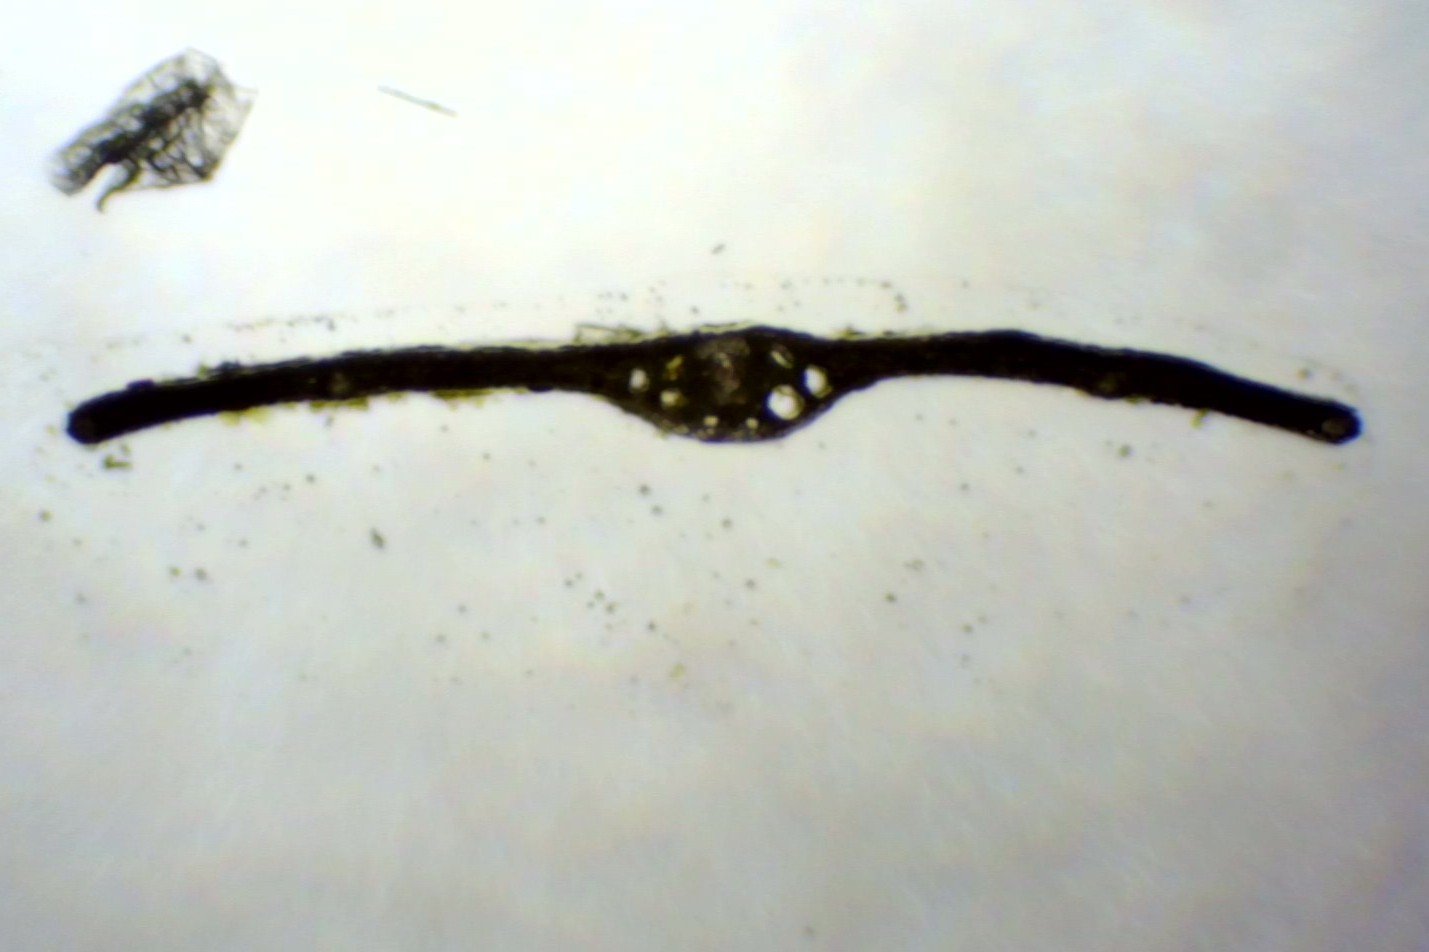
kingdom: Plantae
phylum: Tracheophyta
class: Liliopsida
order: Alismatales
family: Potamogetonaceae
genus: Potamogeton
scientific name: Potamogeton pusillus
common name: Spinkel vandaks
